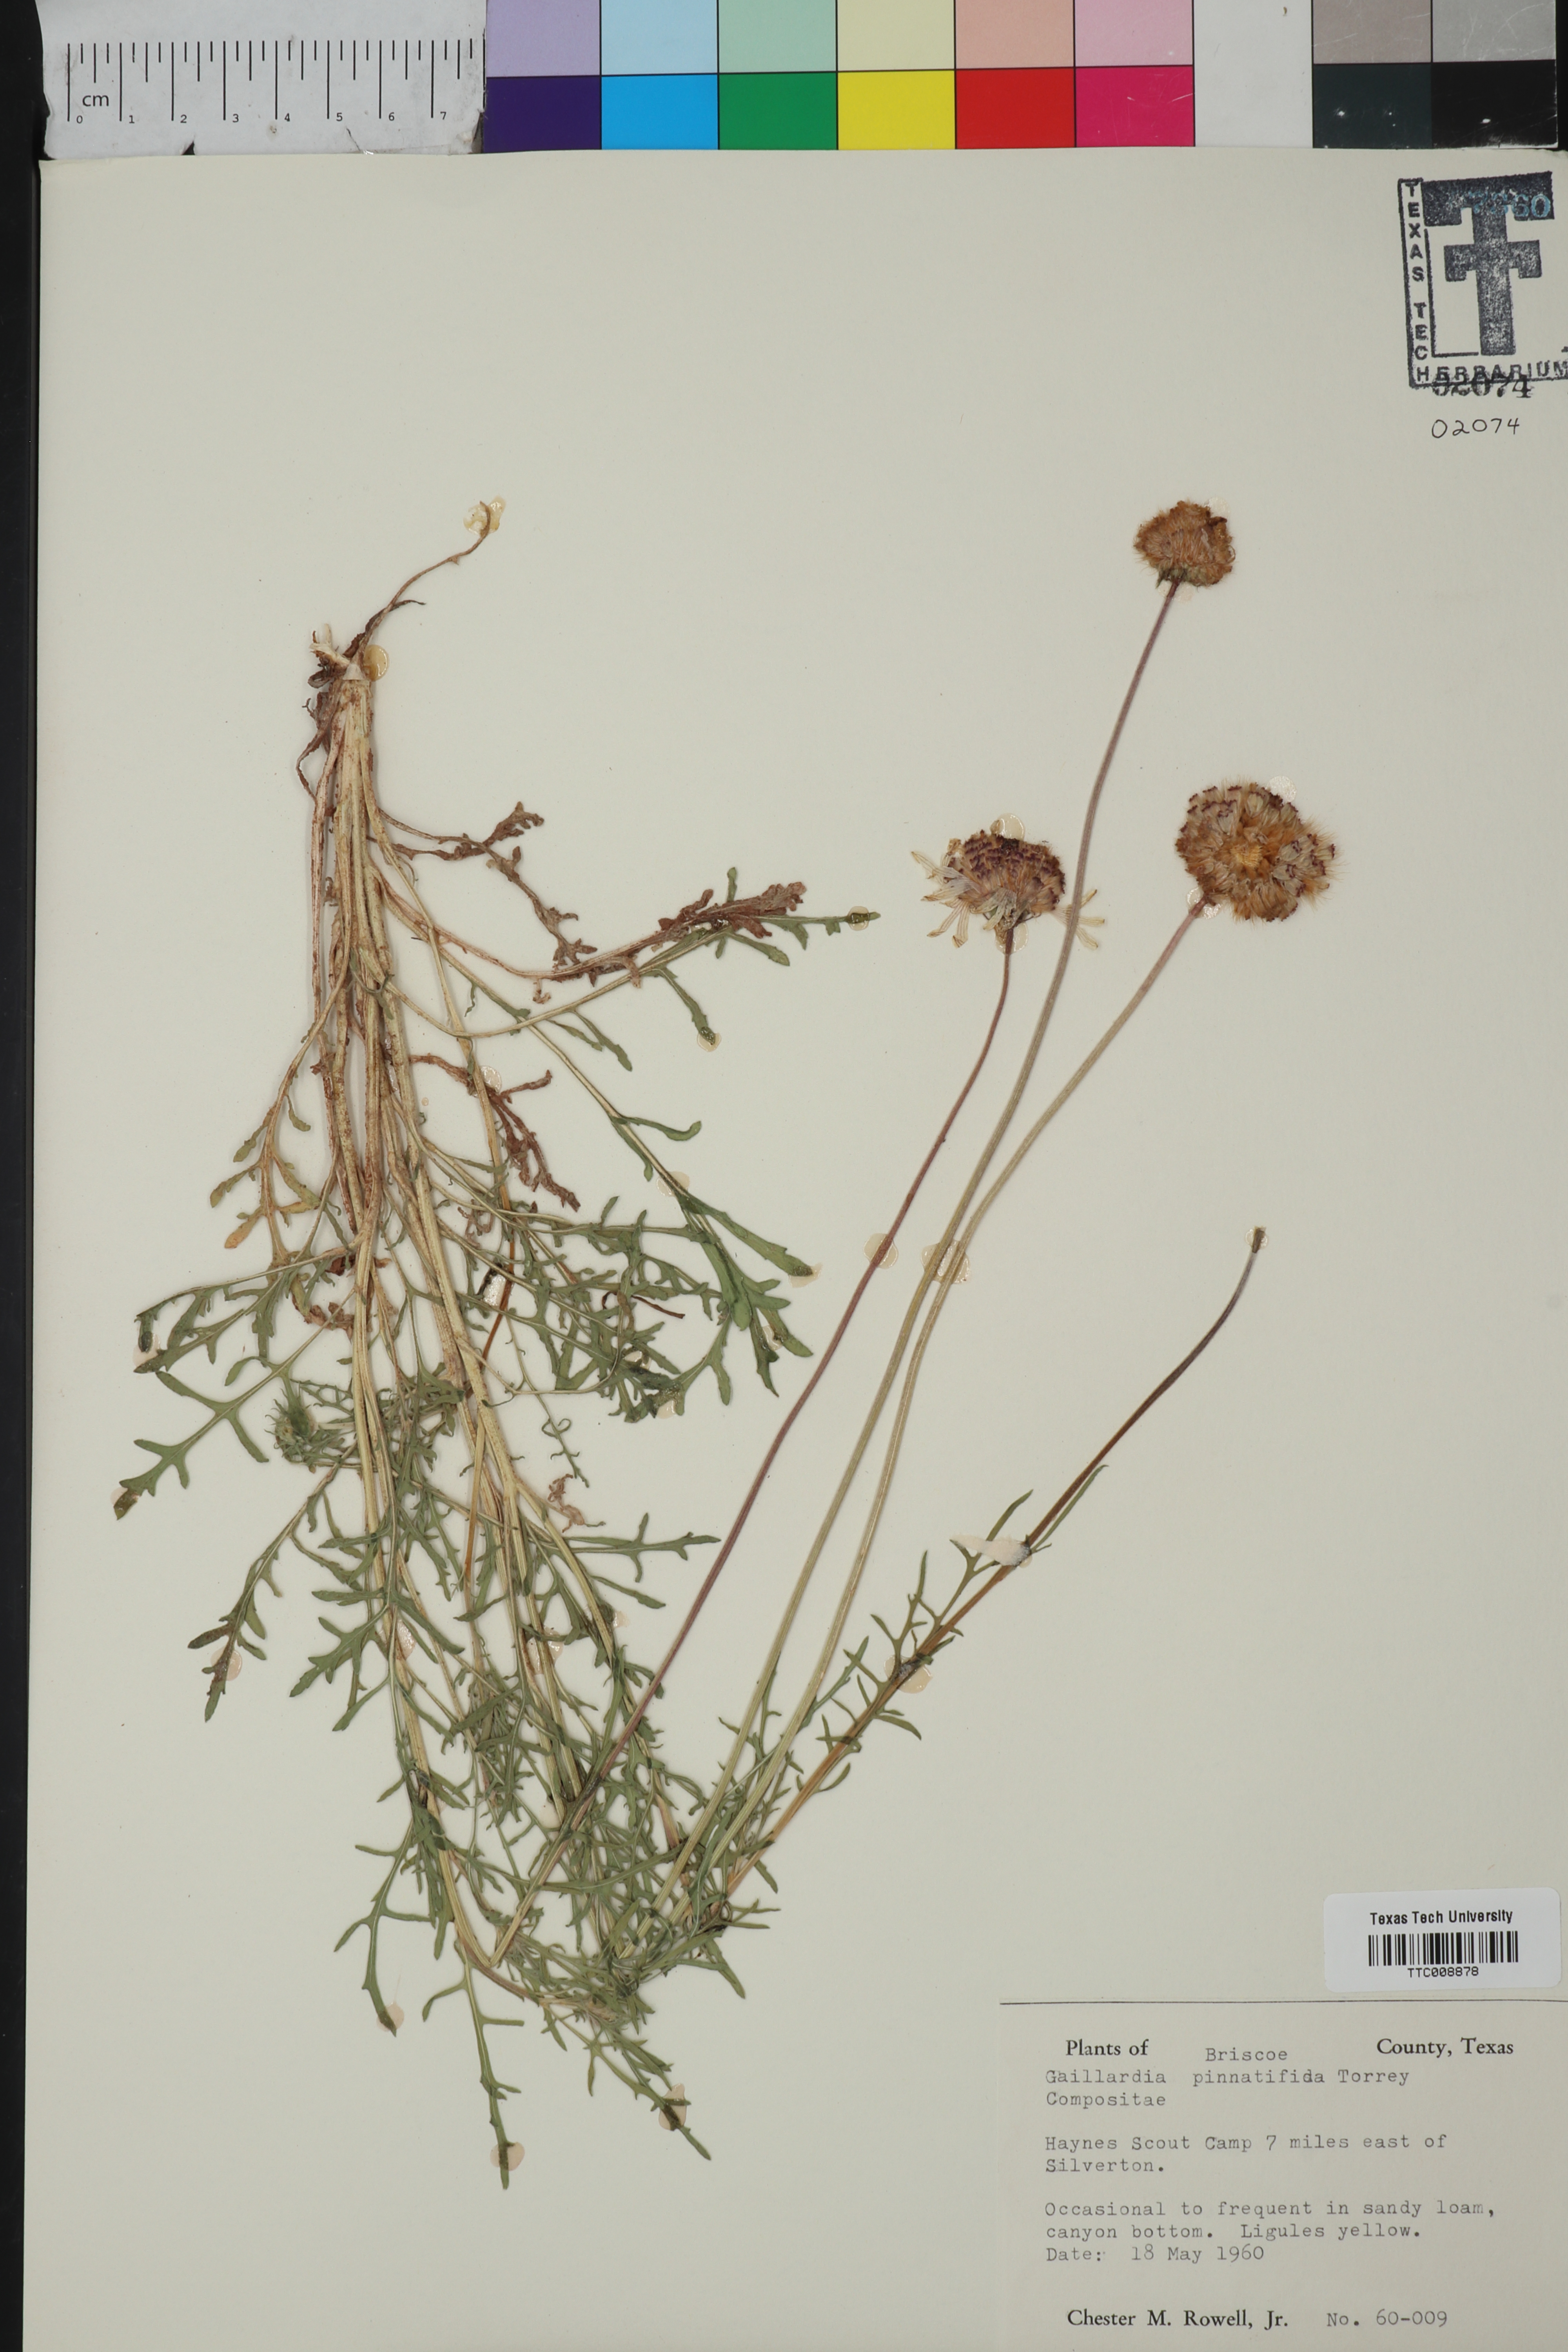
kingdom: Plantae
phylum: Tracheophyta
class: Magnoliopsida
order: Asterales
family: Asteraceae
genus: Gaillardia
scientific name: Gaillardia pinnatifida
